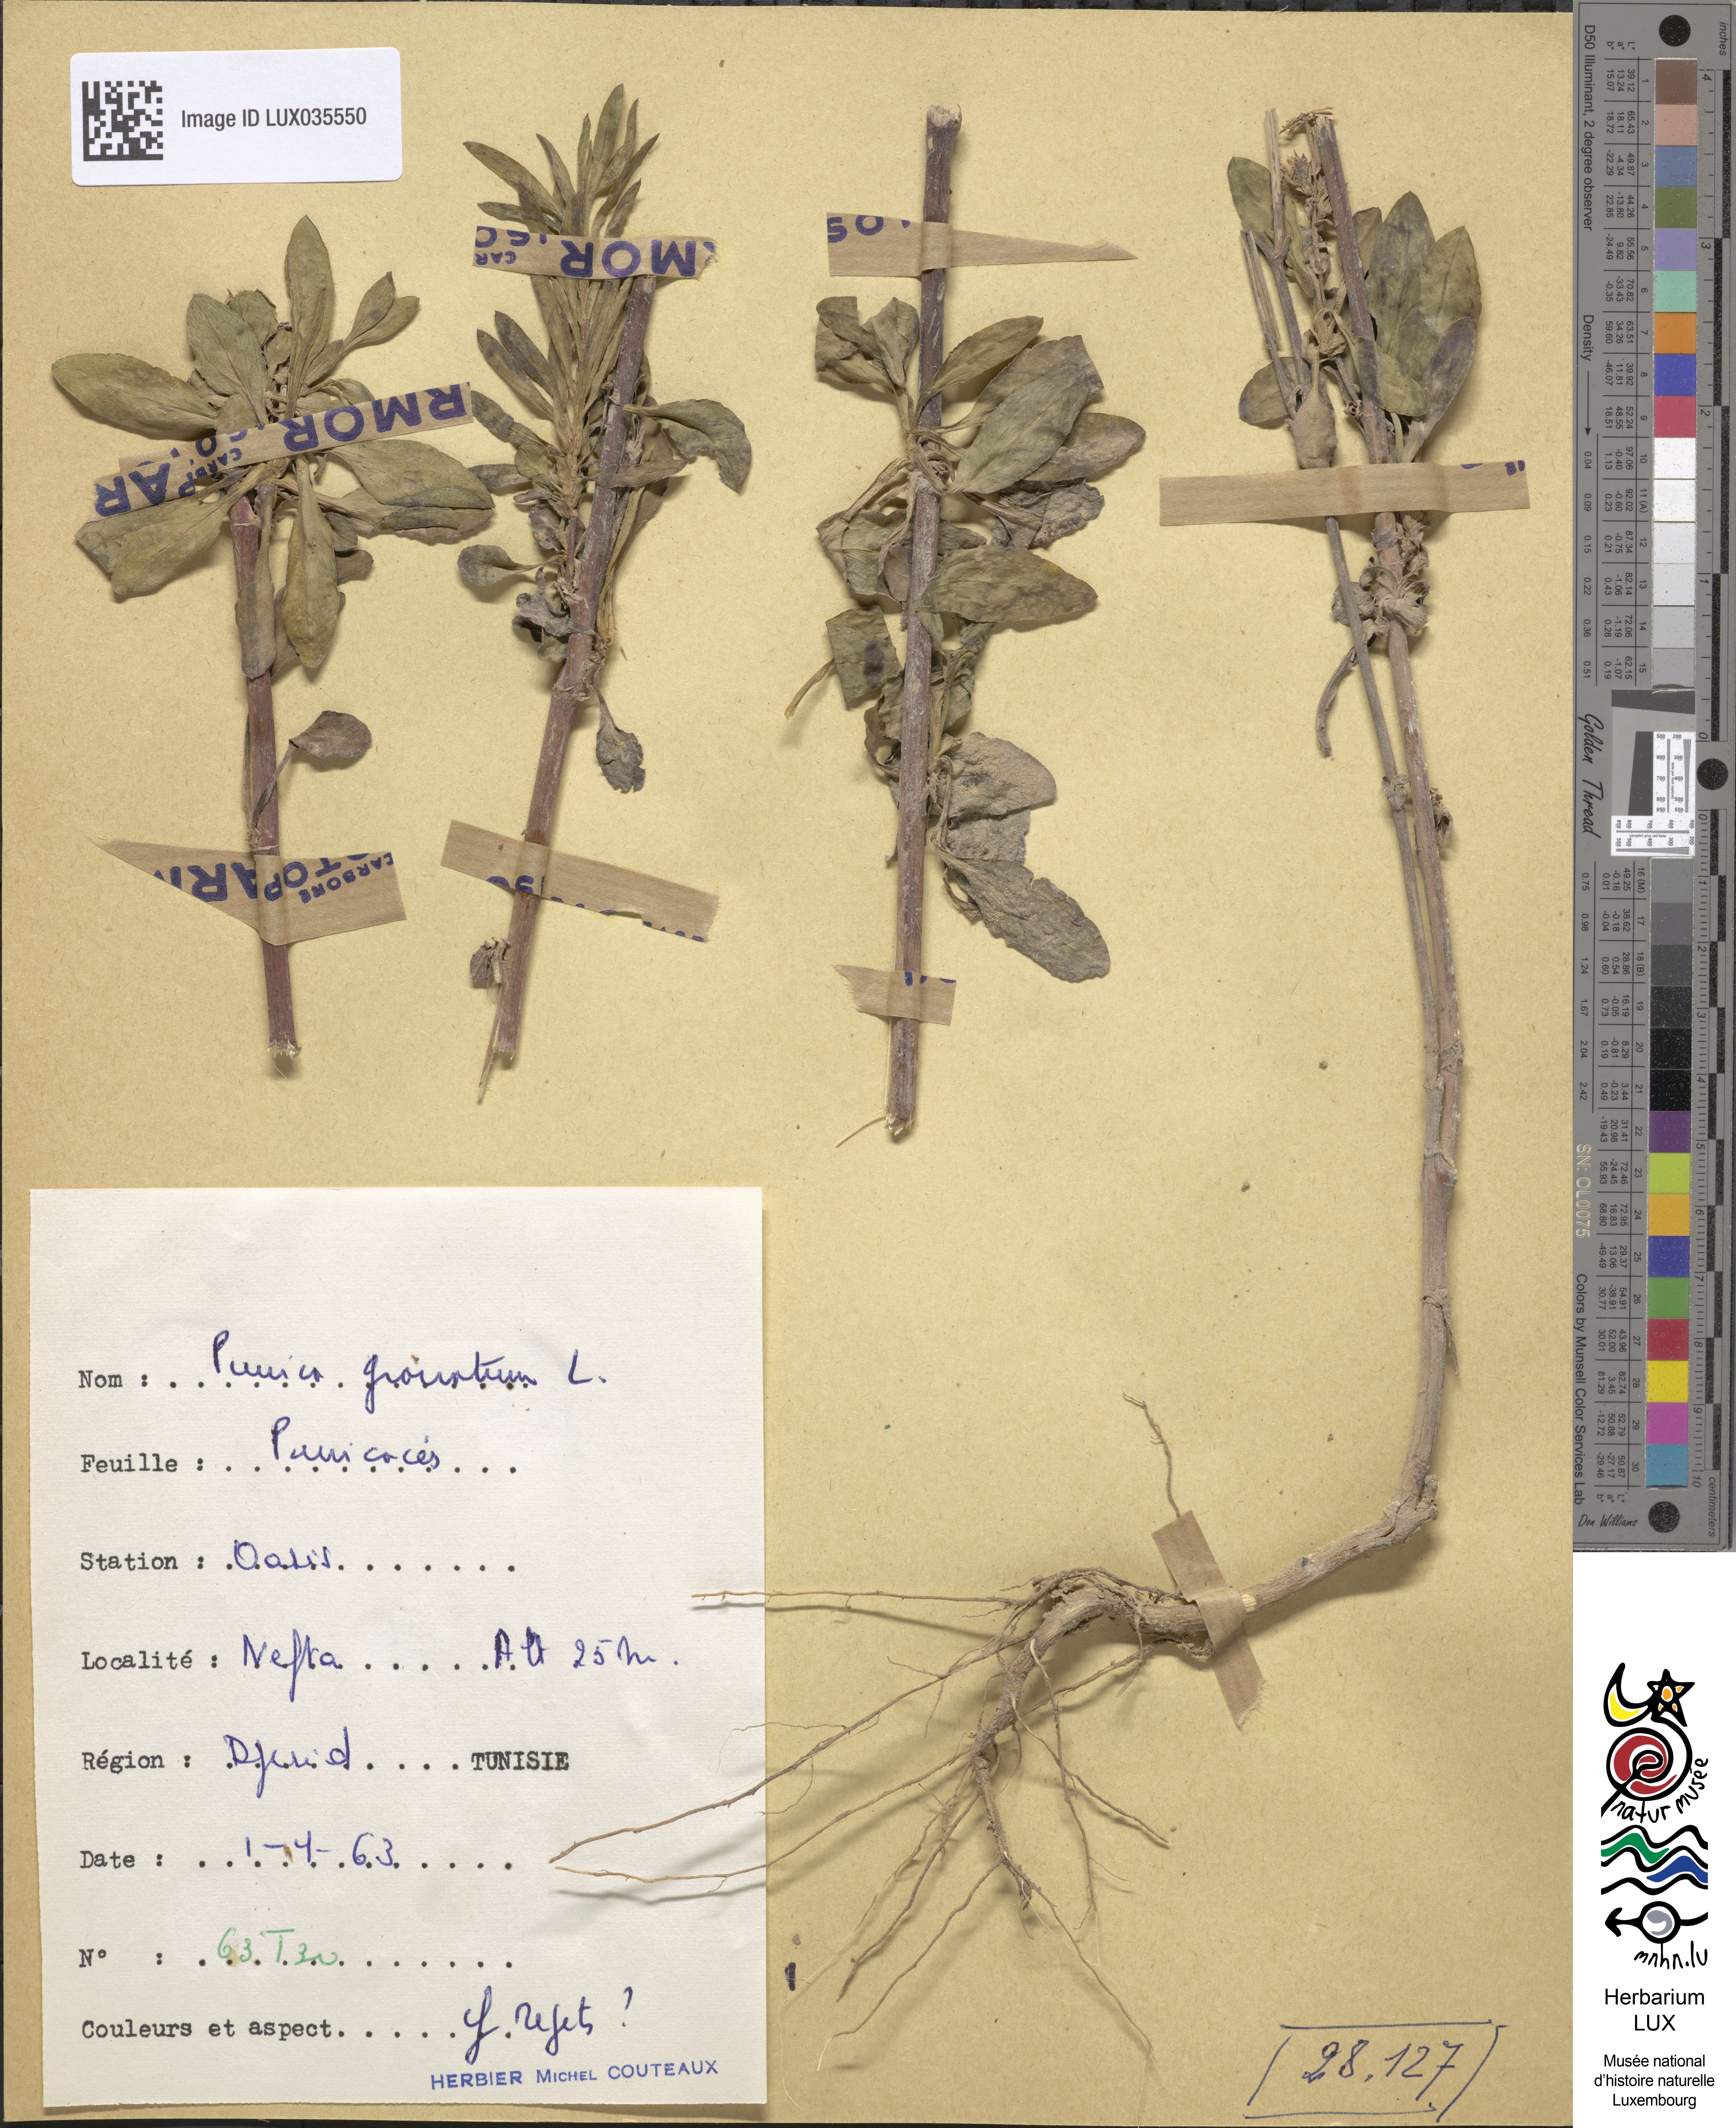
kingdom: Plantae
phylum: Tracheophyta
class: Magnoliopsida
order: Myrtales
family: Lythraceae
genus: Punica
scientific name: Punica granatum
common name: Pomegranate
